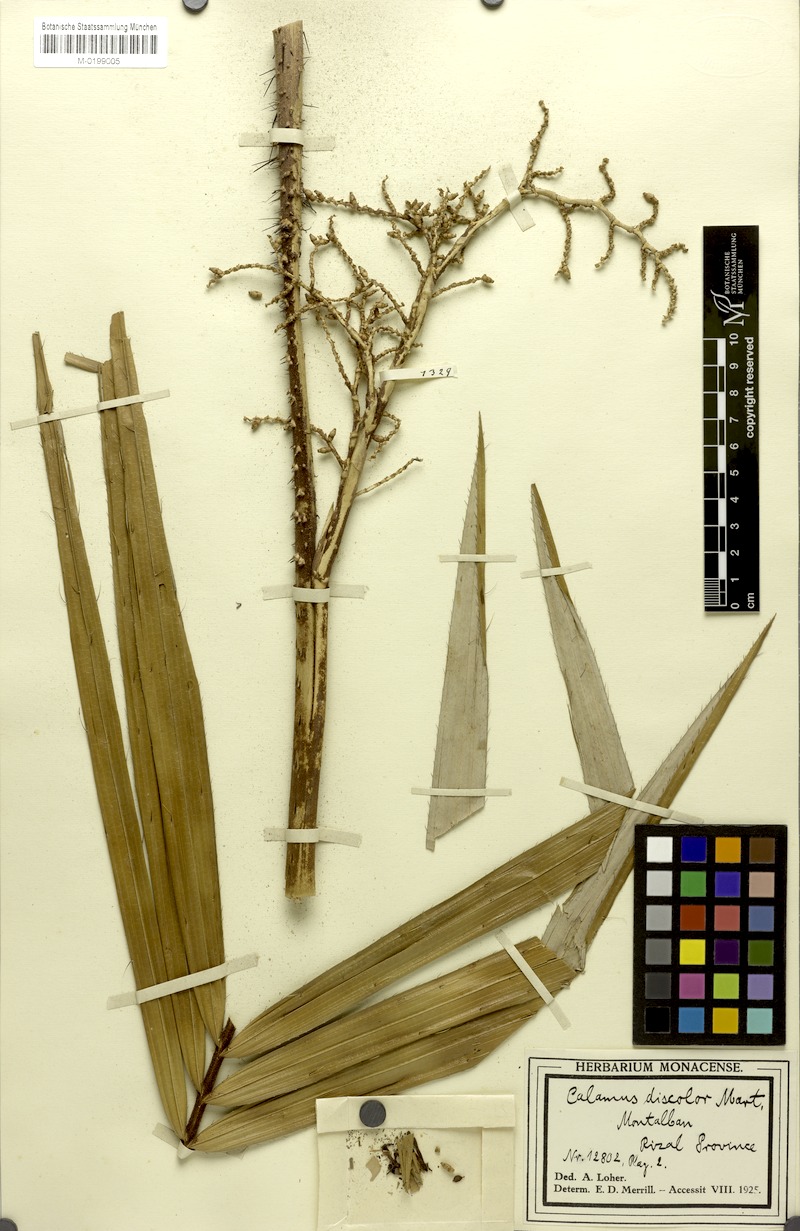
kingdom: Plantae
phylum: Tracheophyta
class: Liliopsida
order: Arecales
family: Arecaceae
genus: Calamus
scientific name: Calamus discolor
